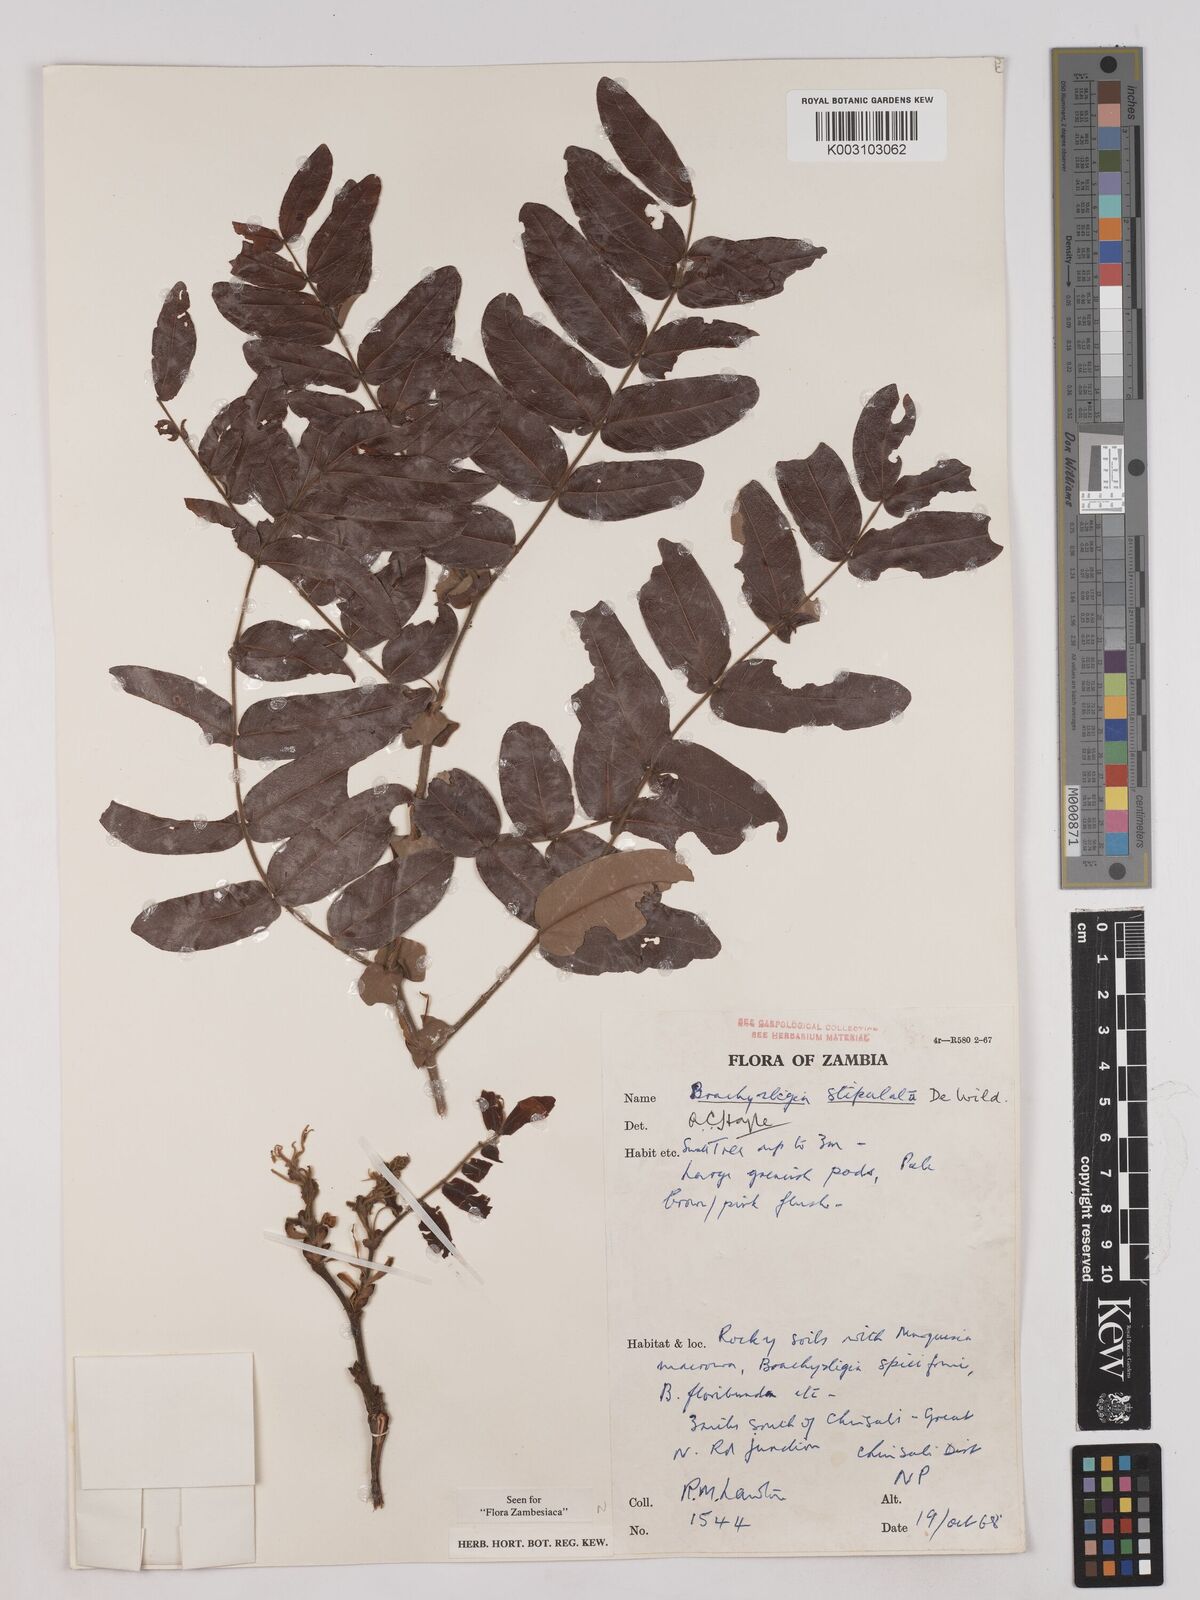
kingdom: Plantae
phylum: Tracheophyta
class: Magnoliopsida
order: Fabales
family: Fabaceae
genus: Brachystegia
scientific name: Brachystegia stipulata
